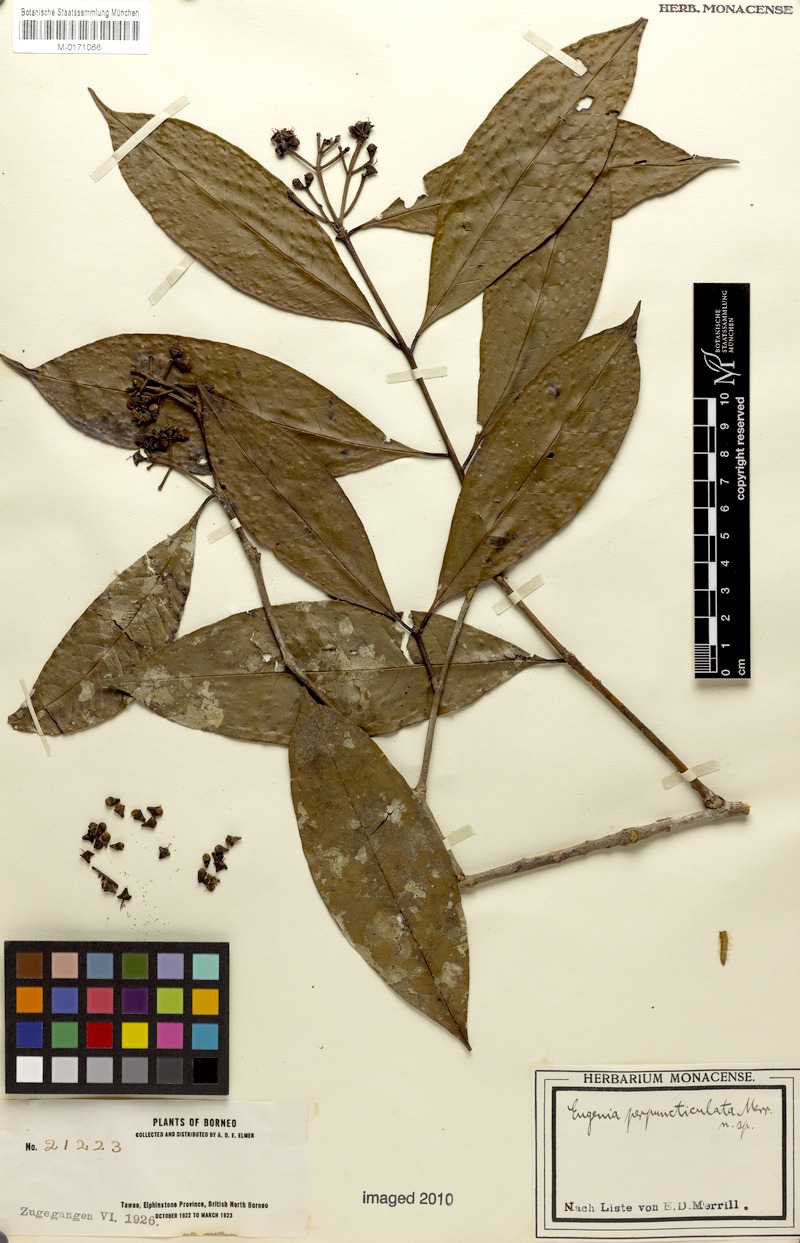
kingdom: Plantae
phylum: Tracheophyta
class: Magnoliopsida
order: Myrtales
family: Myrtaceae
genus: Syzygium
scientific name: Syzygium pustulatum
